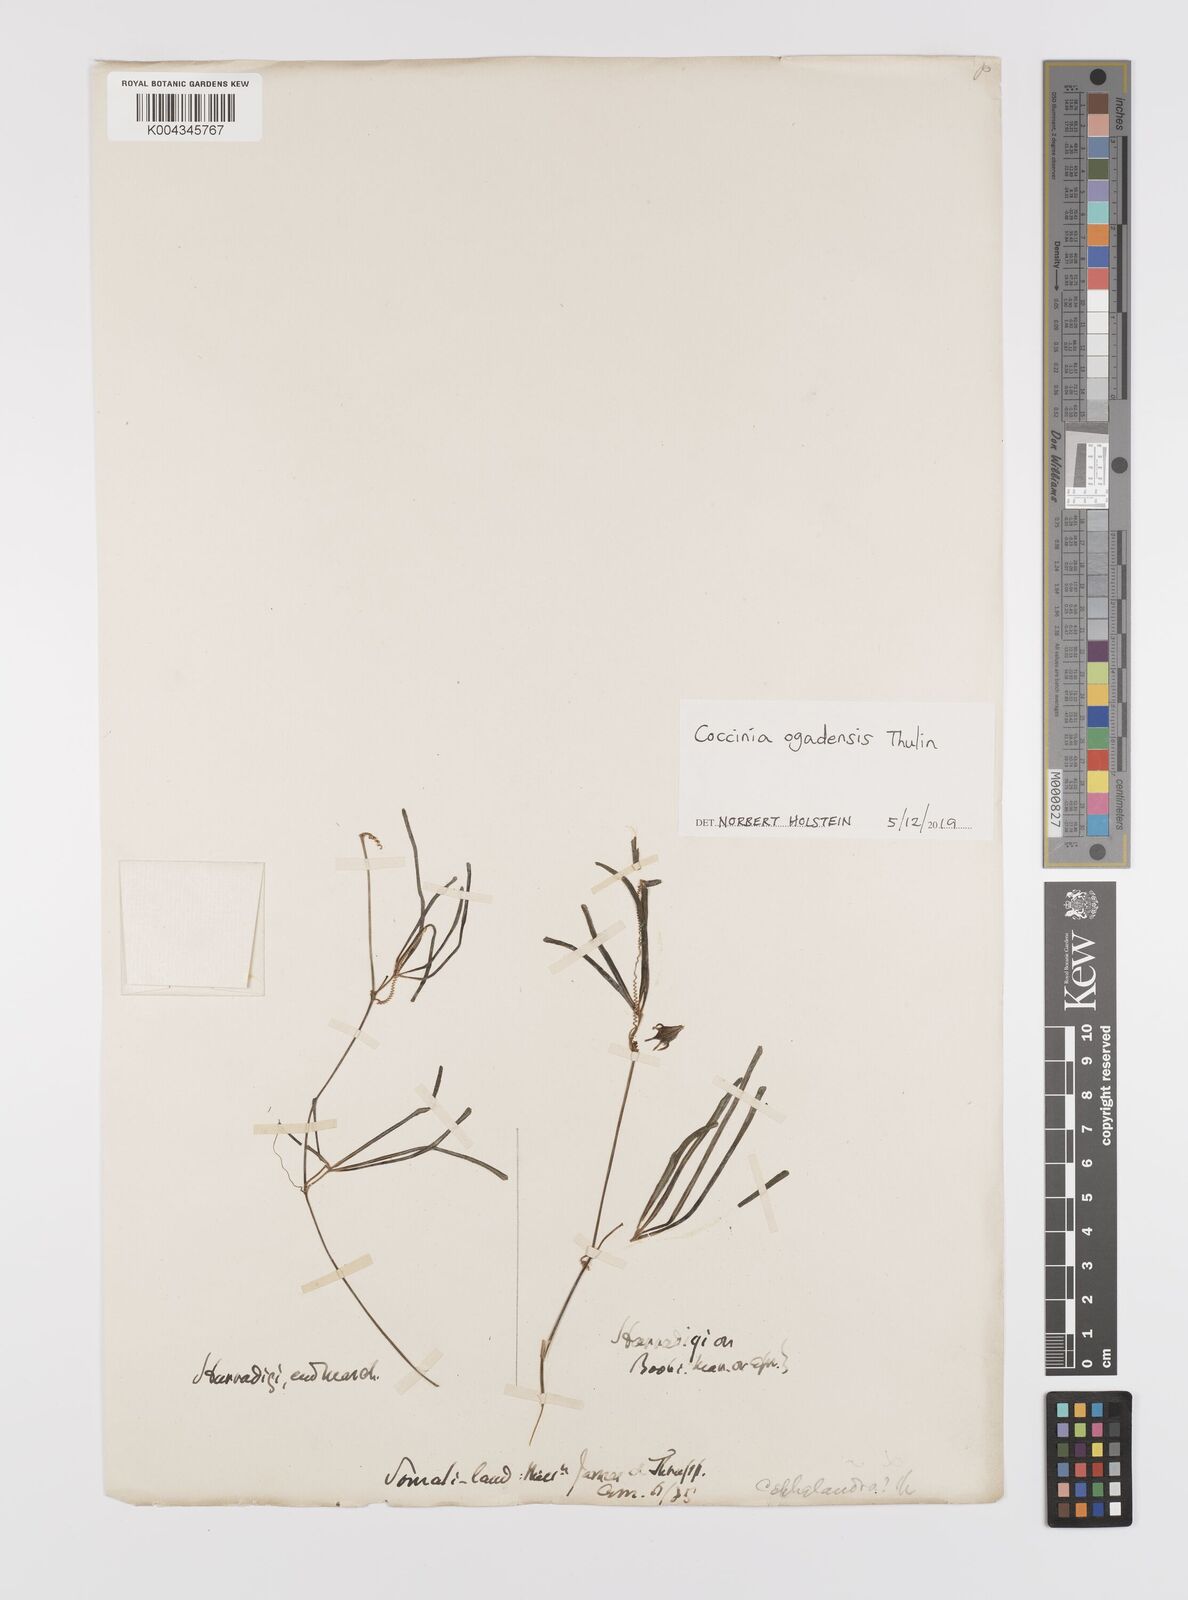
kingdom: Plantae
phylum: Tracheophyta
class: Magnoliopsida
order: Cucurbitales
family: Cucurbitaceae
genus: Coccinia
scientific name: Coccinia ogadensis
